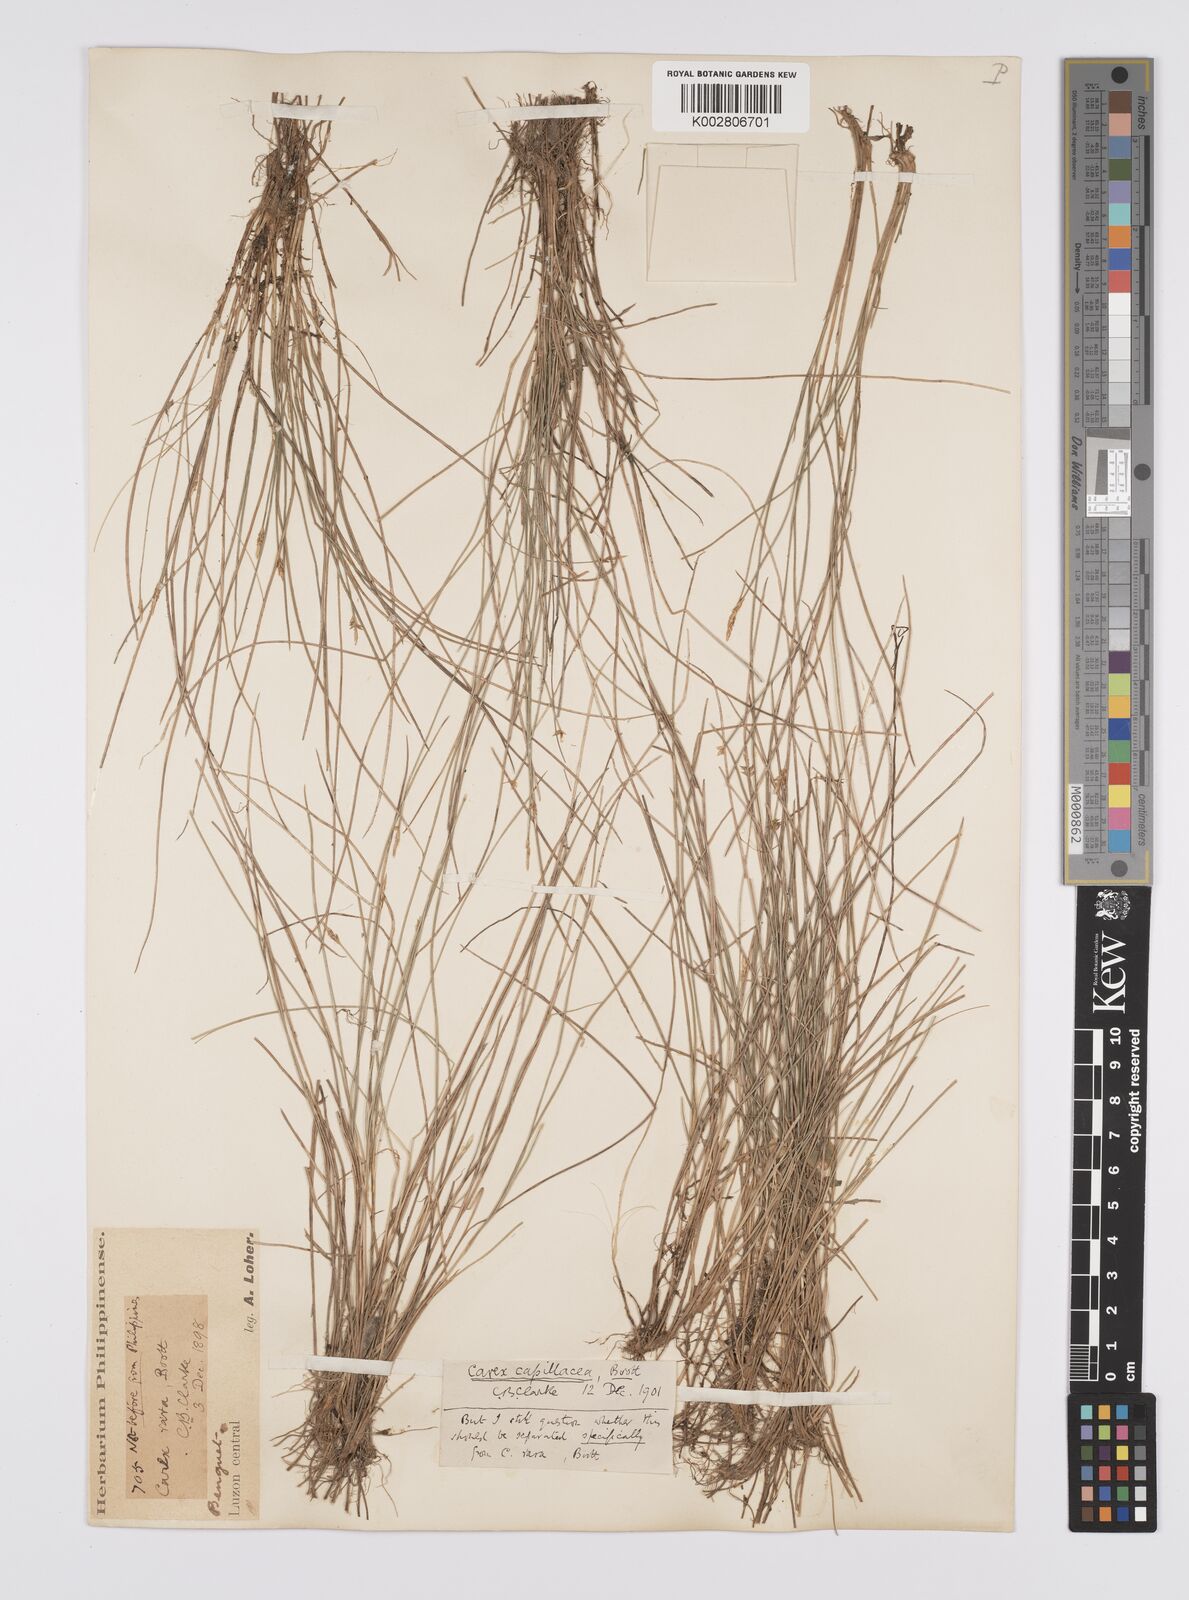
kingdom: Plantae
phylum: Tracheophyta
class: Liliopsida
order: Poales
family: Cyperaceae
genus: Carex
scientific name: Carex capillacea
